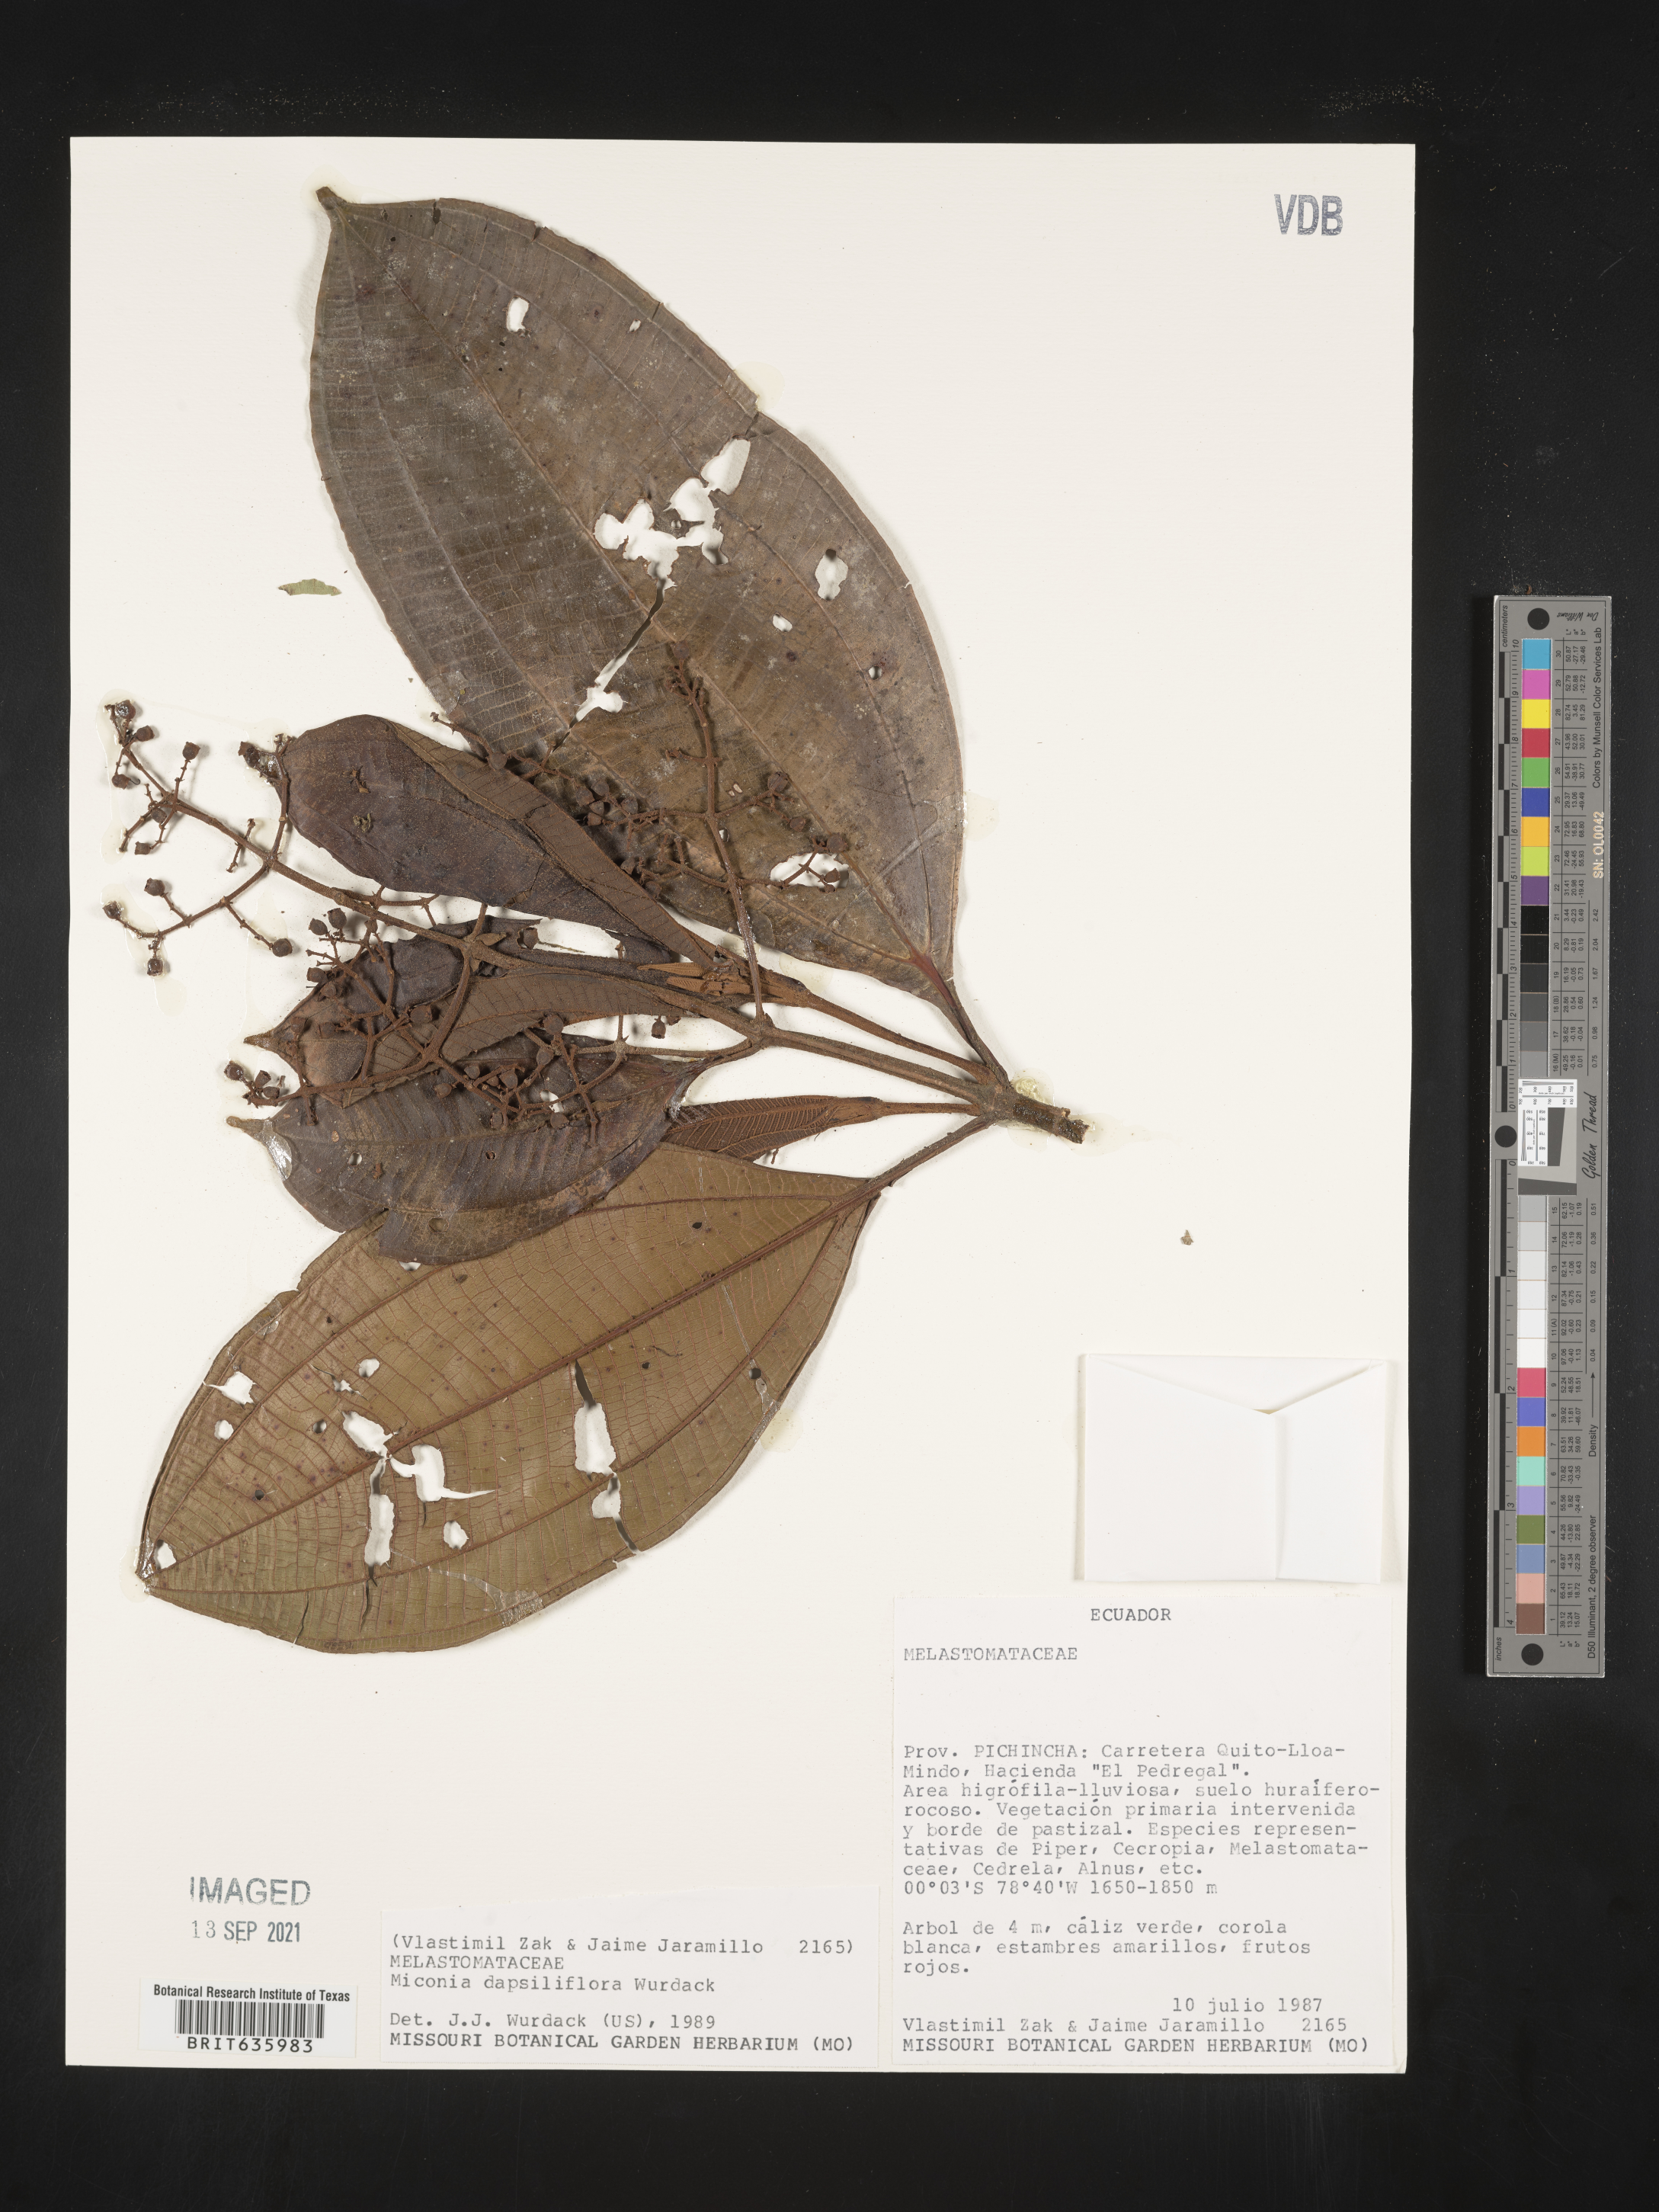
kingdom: Plantae
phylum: Tracheophyta
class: Magnoliopsida
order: Myrtales
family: Melastomataceae
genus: Miconia
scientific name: Miconia
